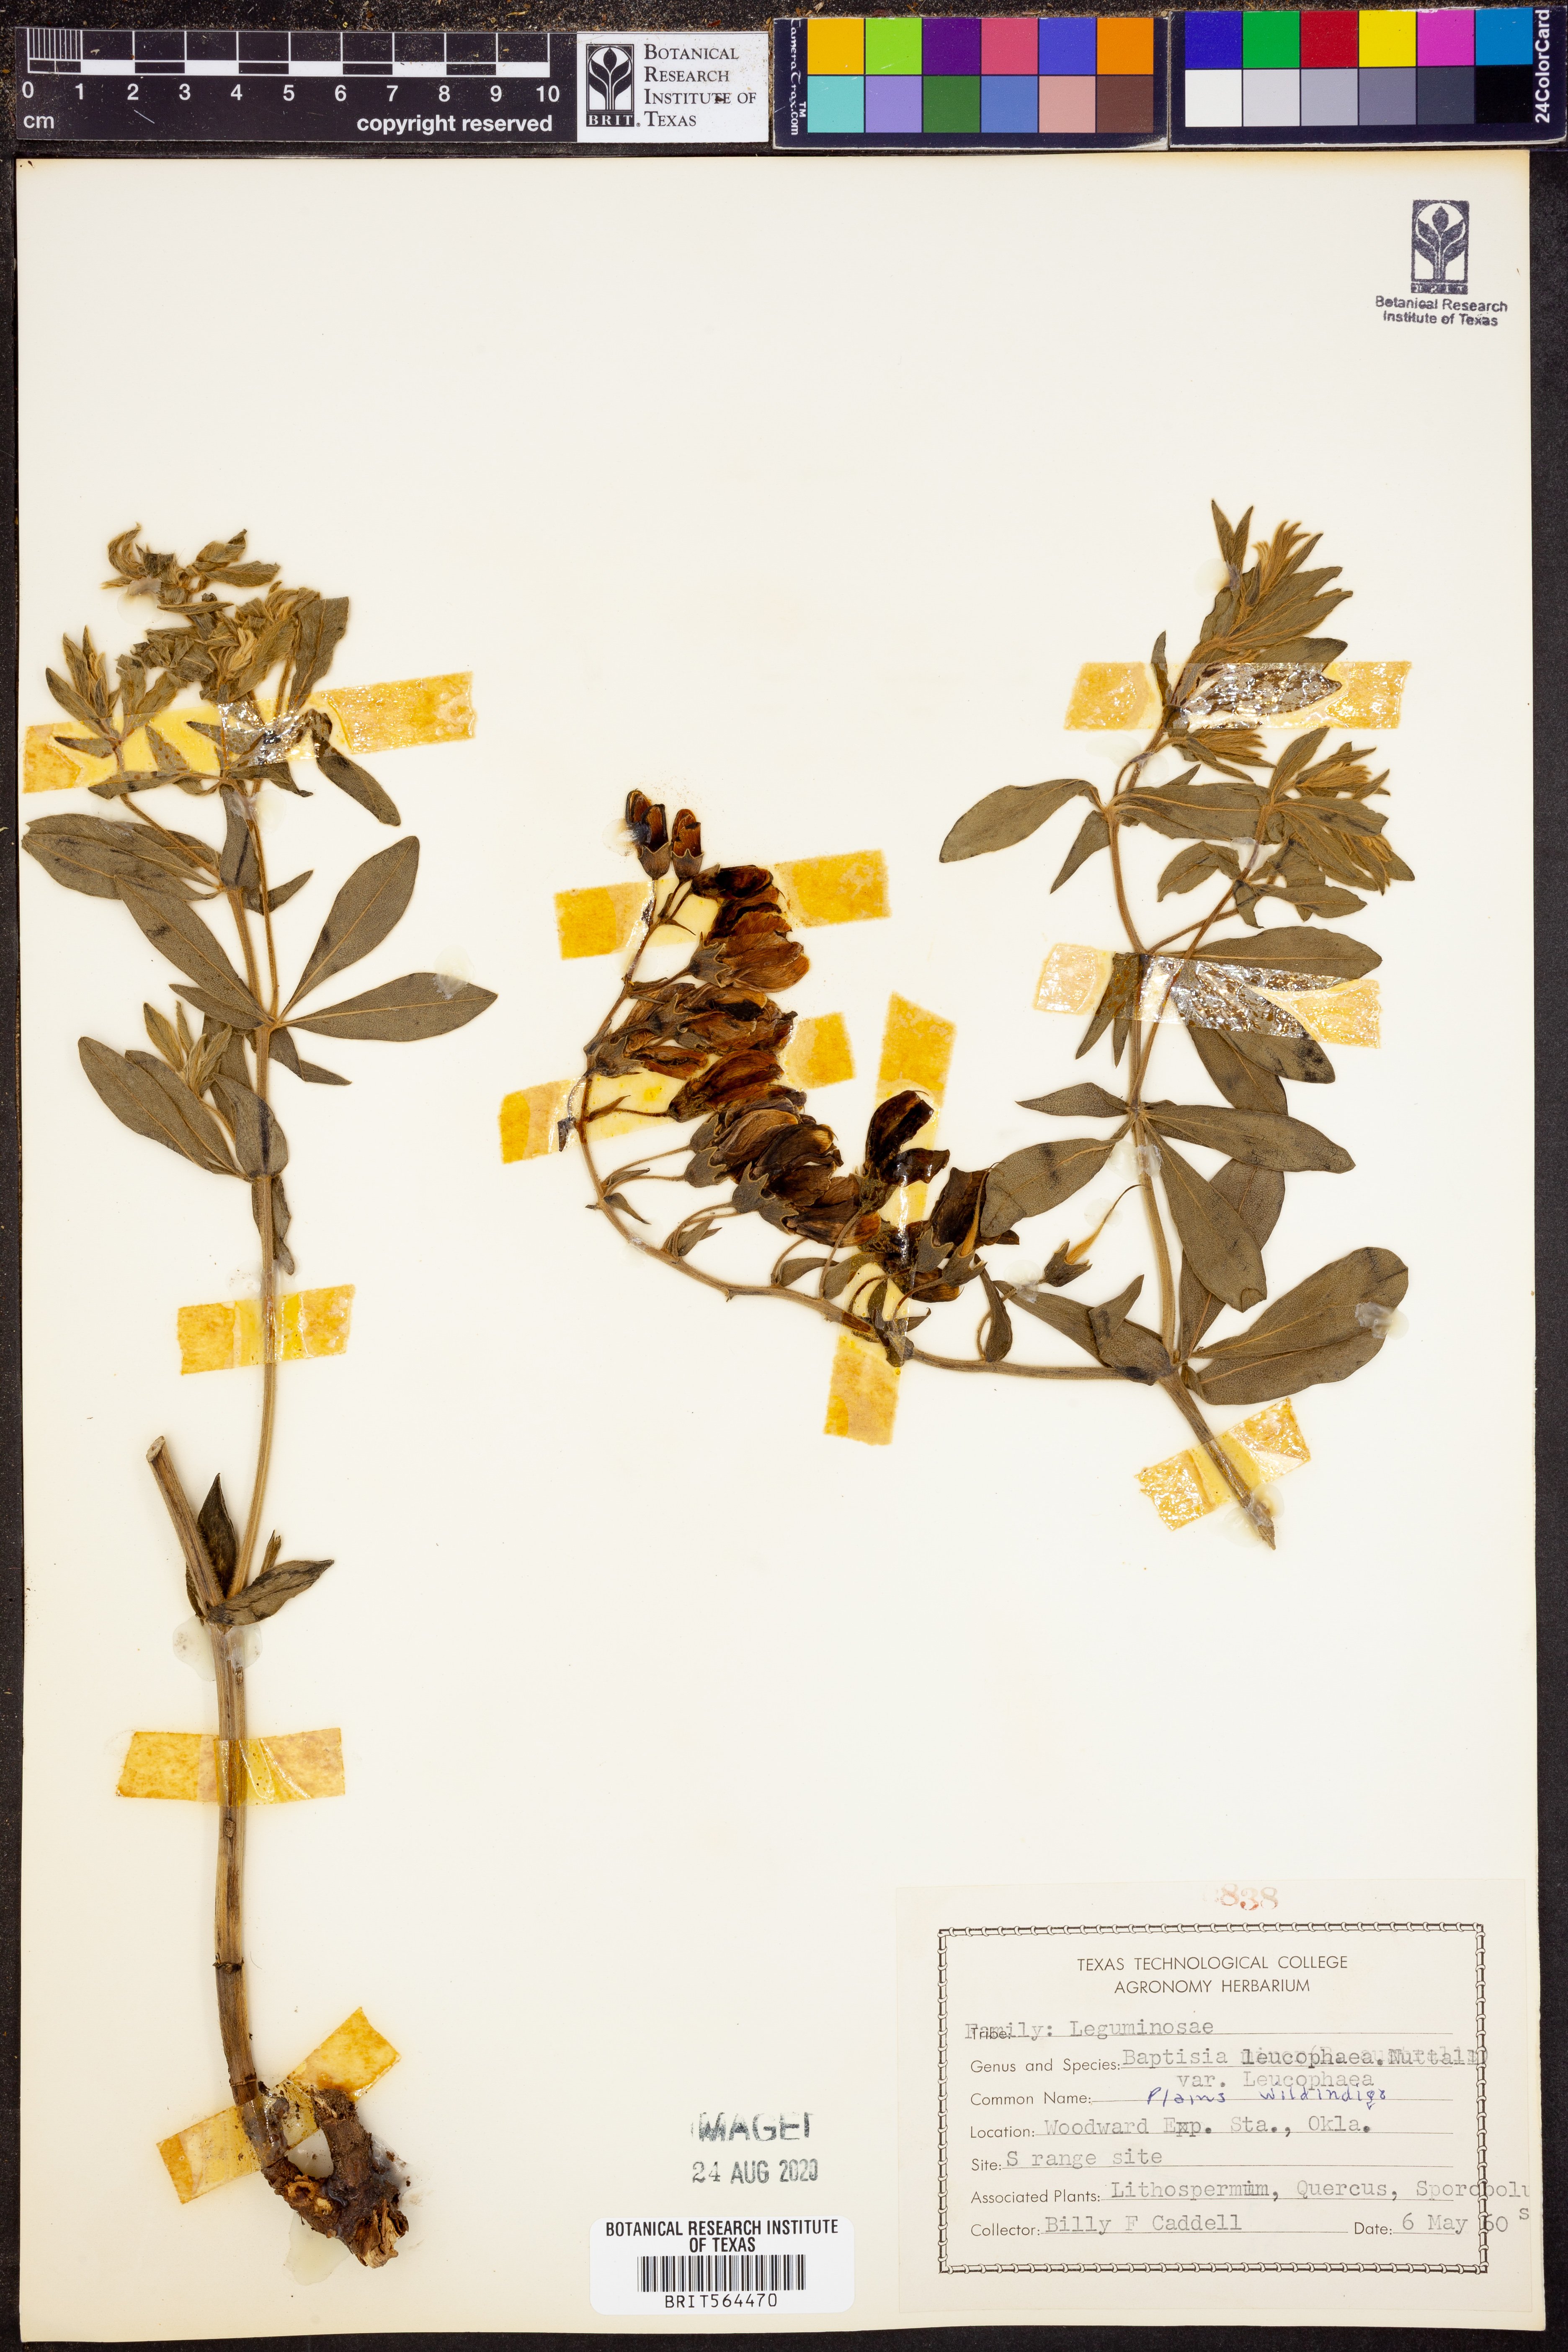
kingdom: Plantae
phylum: Tracheophyta
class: Magnoliopsida
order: Fabales
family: Fabaceae
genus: Baptisia
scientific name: Baptisia bracteata
